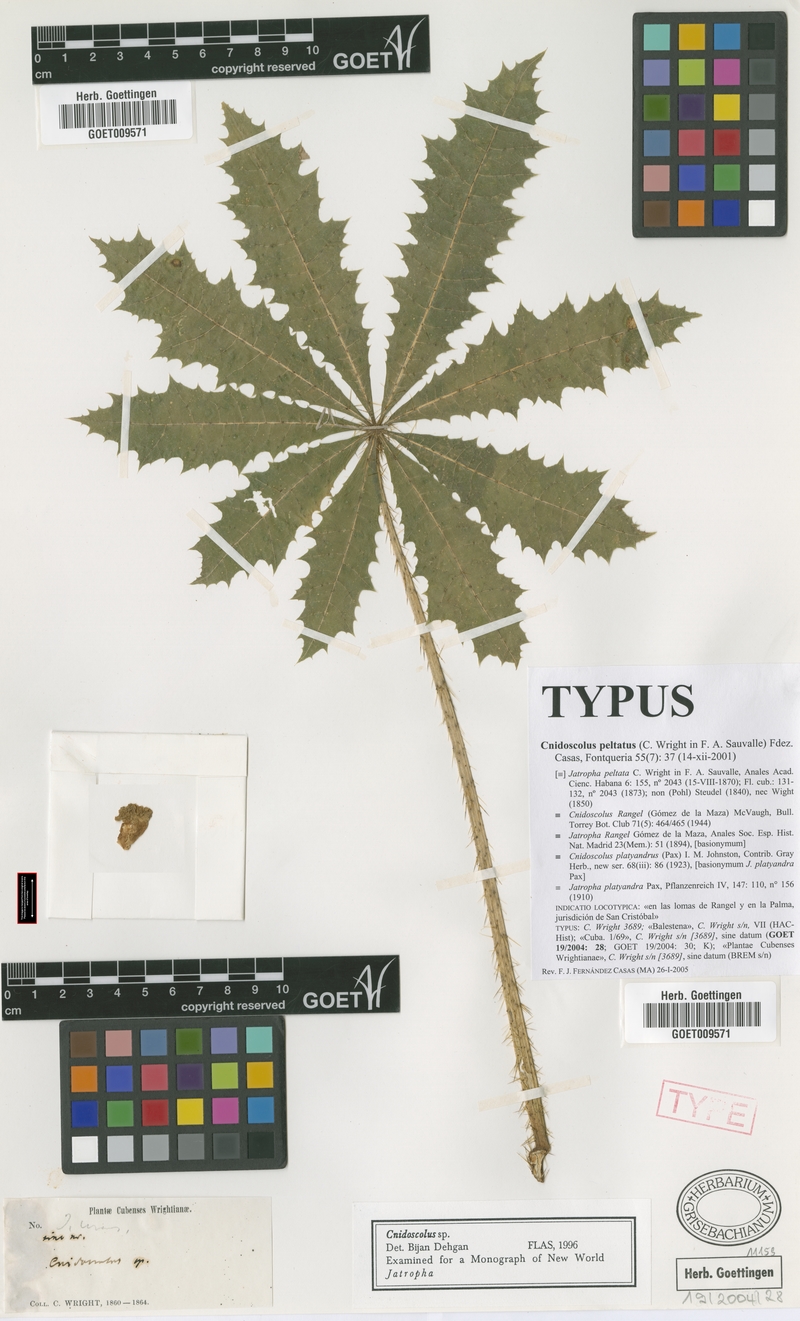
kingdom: Plantae
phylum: Tracheophyta
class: Magnoliopsida
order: Malpighiales
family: Euphorbiaceae
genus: Cnidoscolus
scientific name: Cnidoscolus rangel
